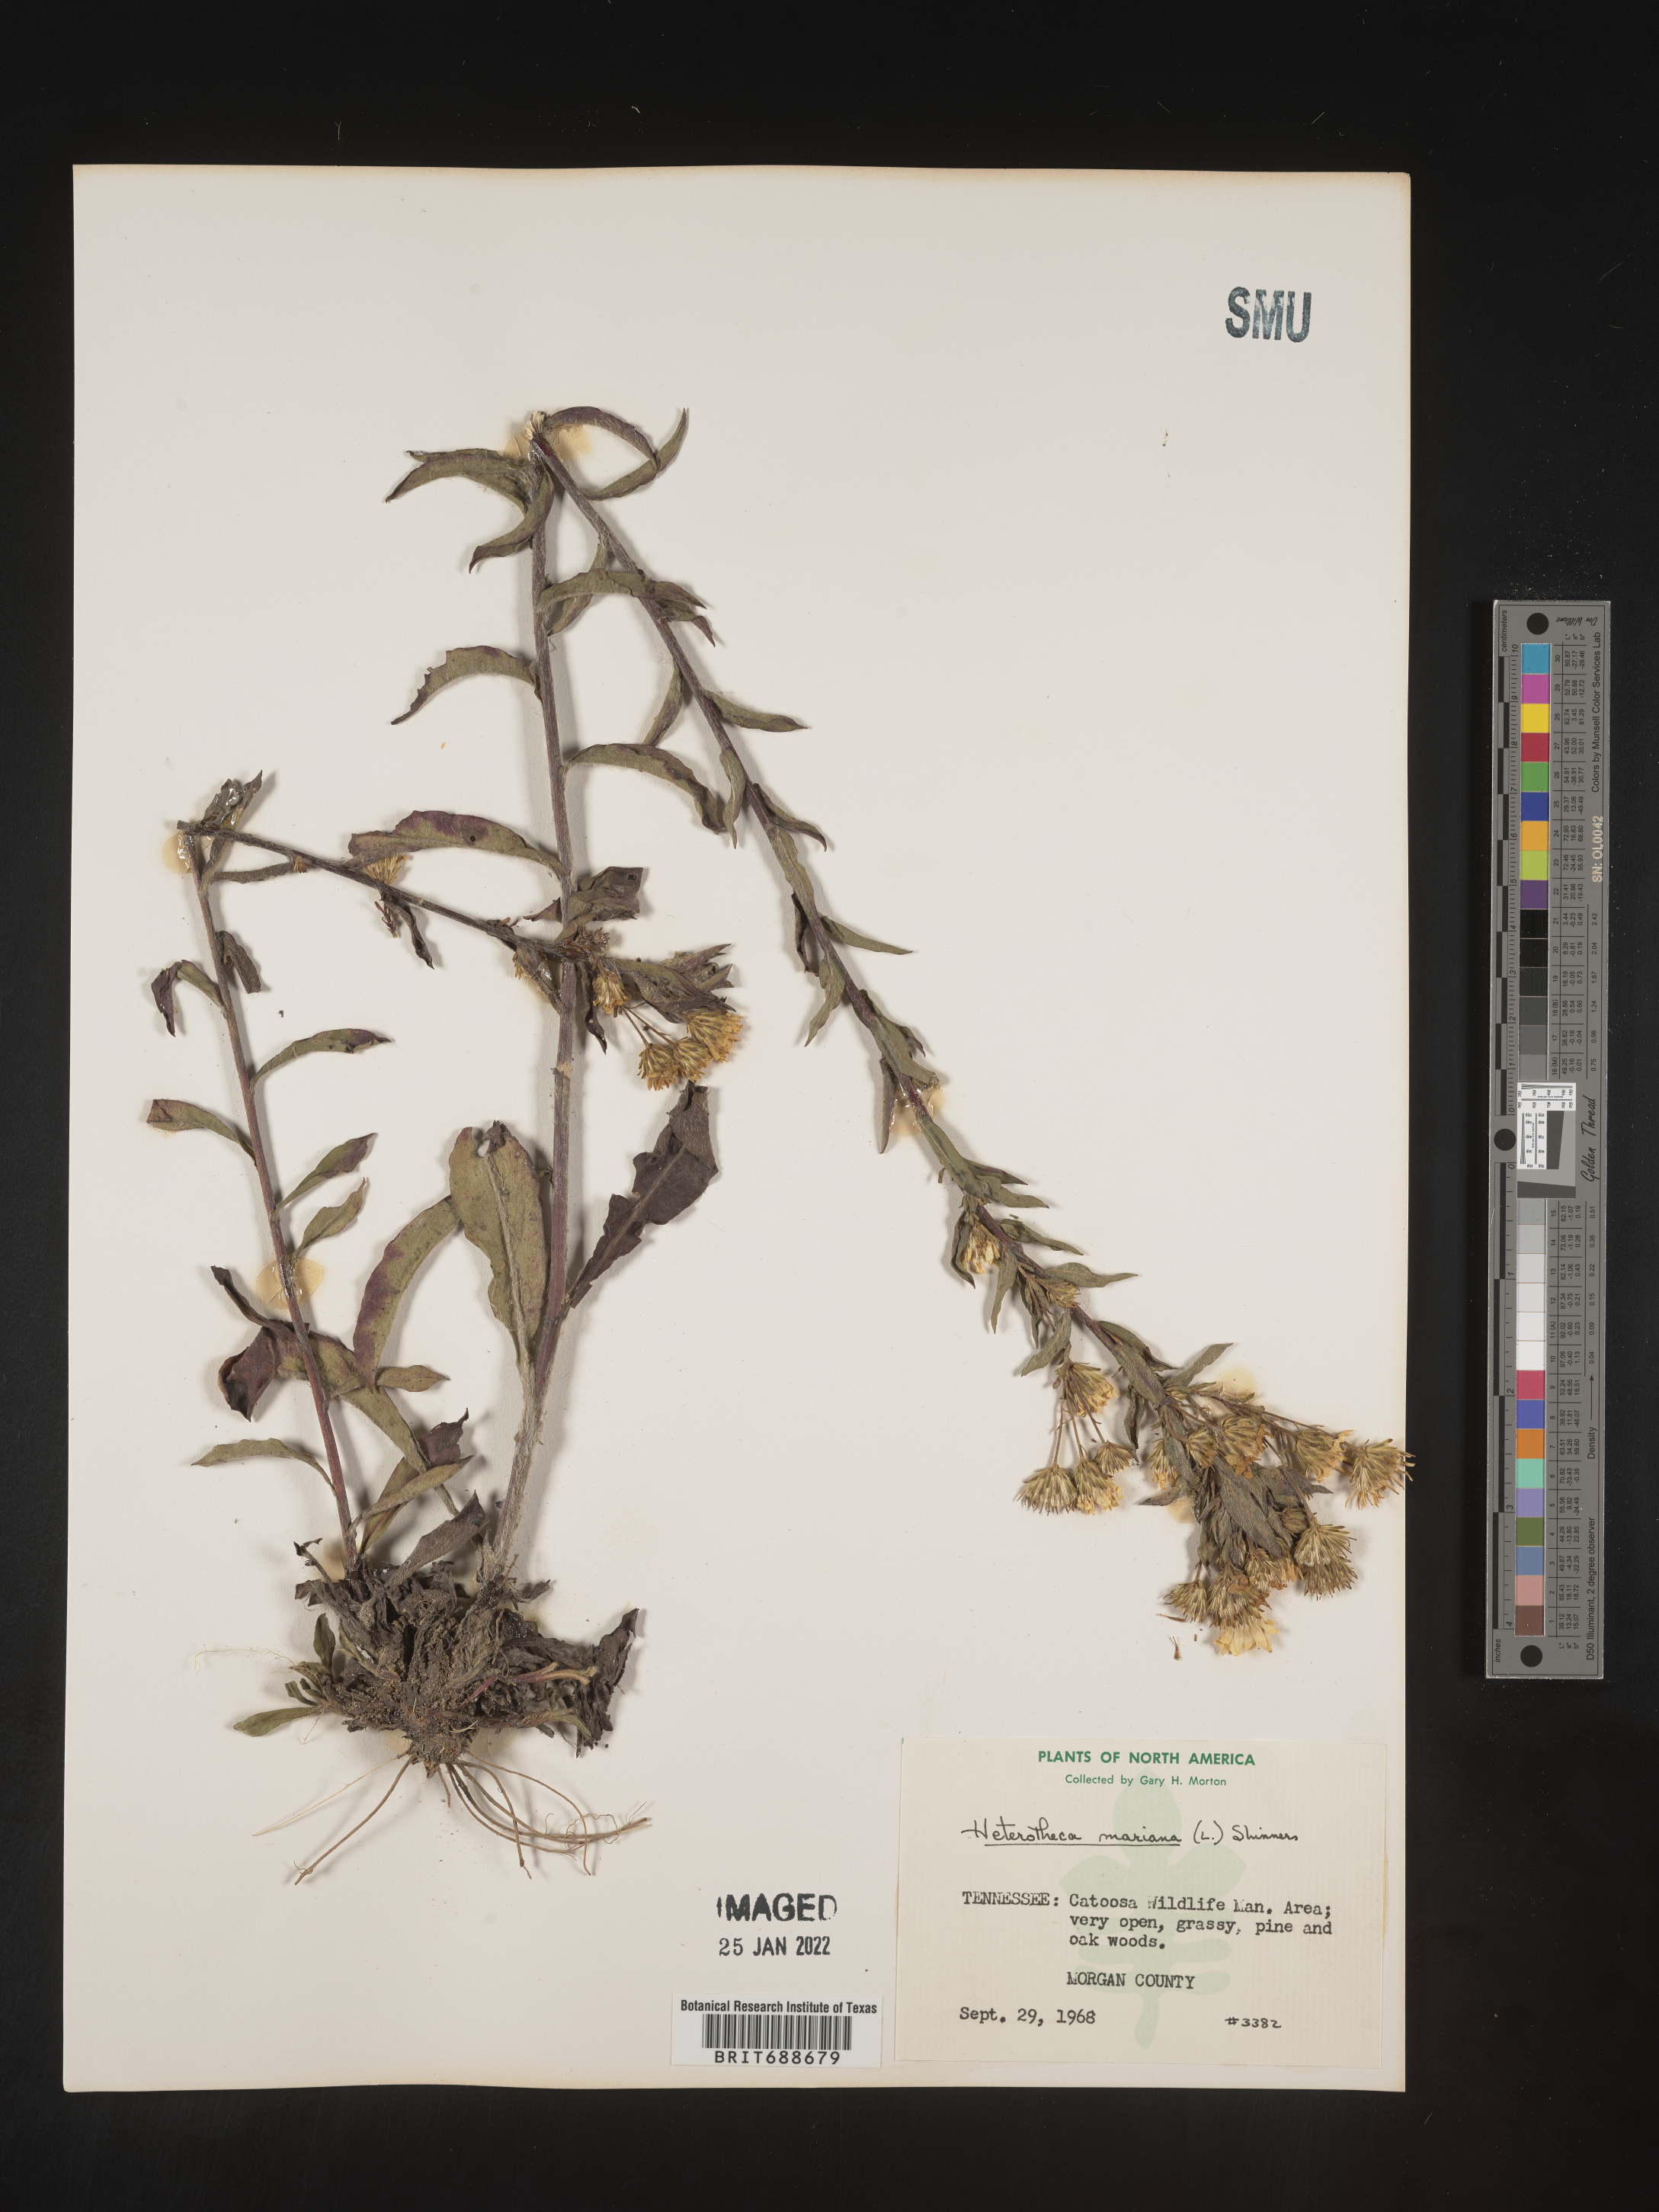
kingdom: Plantae
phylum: Tracheophyta
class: Magnoliopsida
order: Asterales
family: Asteraceae
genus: Chrysopsis
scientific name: Chrysopsis mariana
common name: Maryland golden-aster
